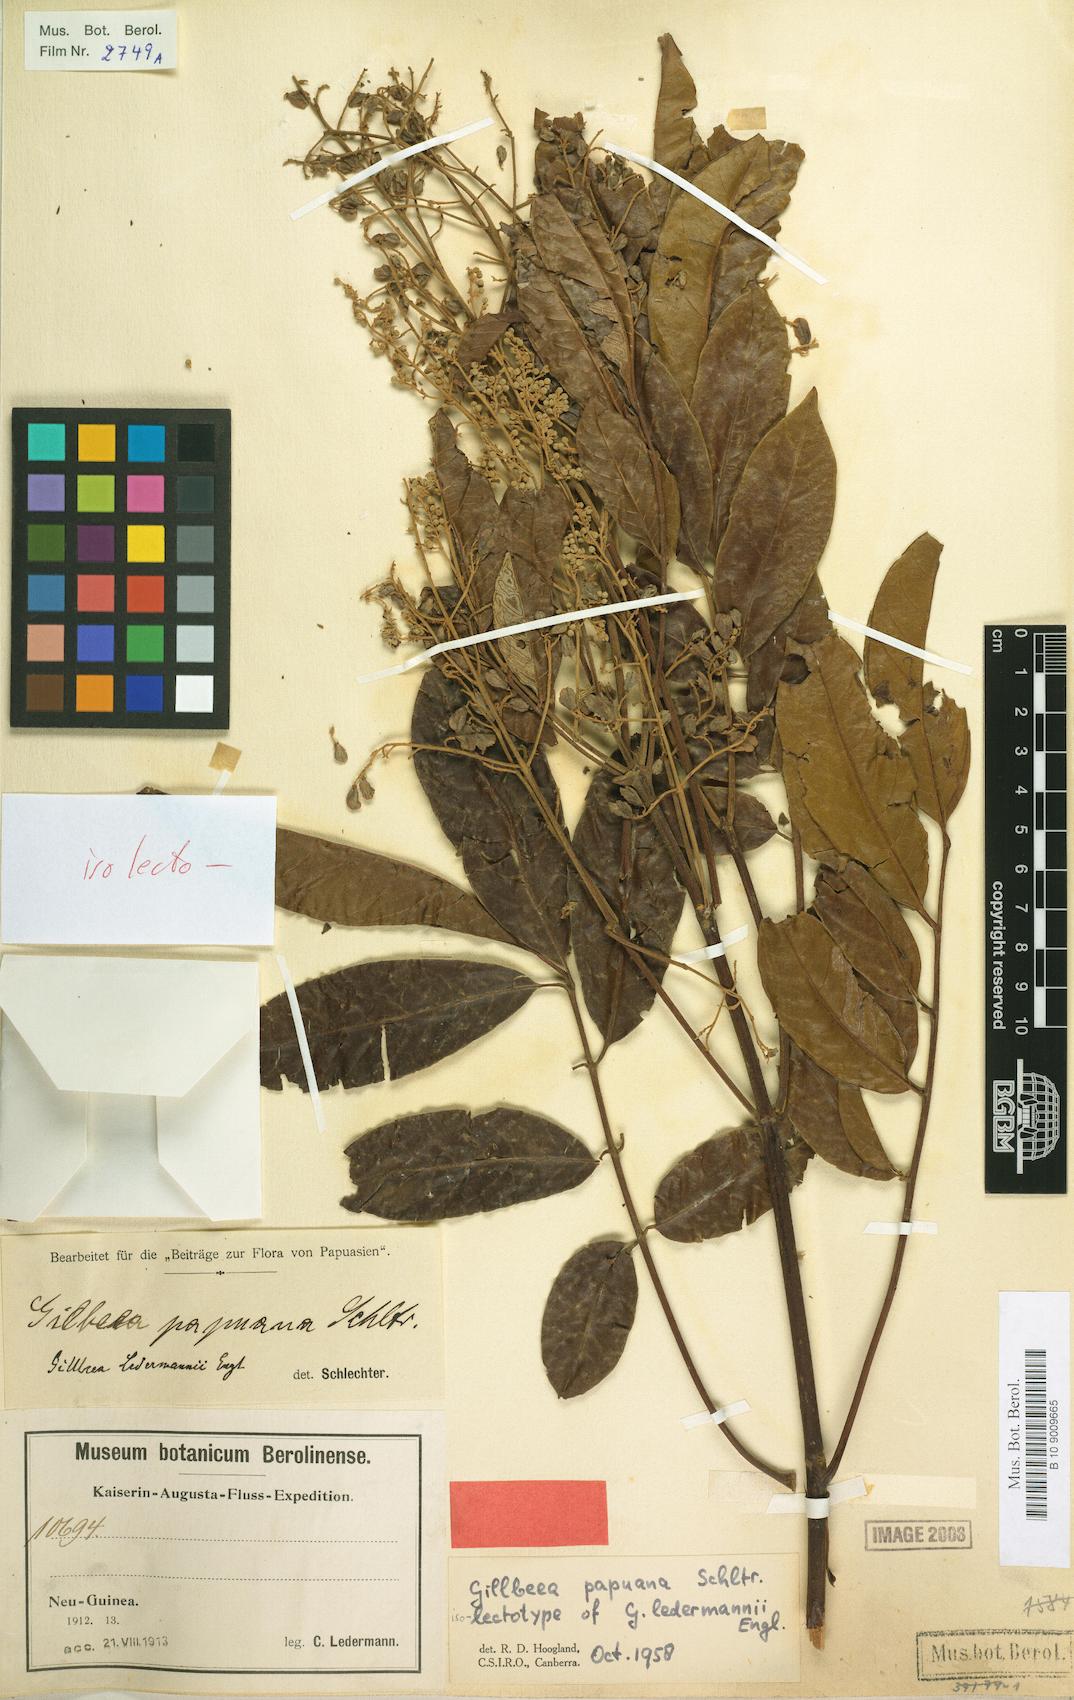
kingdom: Plantae
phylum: Tracheophyta
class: Magnoliopsida
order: Oxalidales
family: Cunoniaceae
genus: Gillbeea
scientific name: Gillbeea papuana
